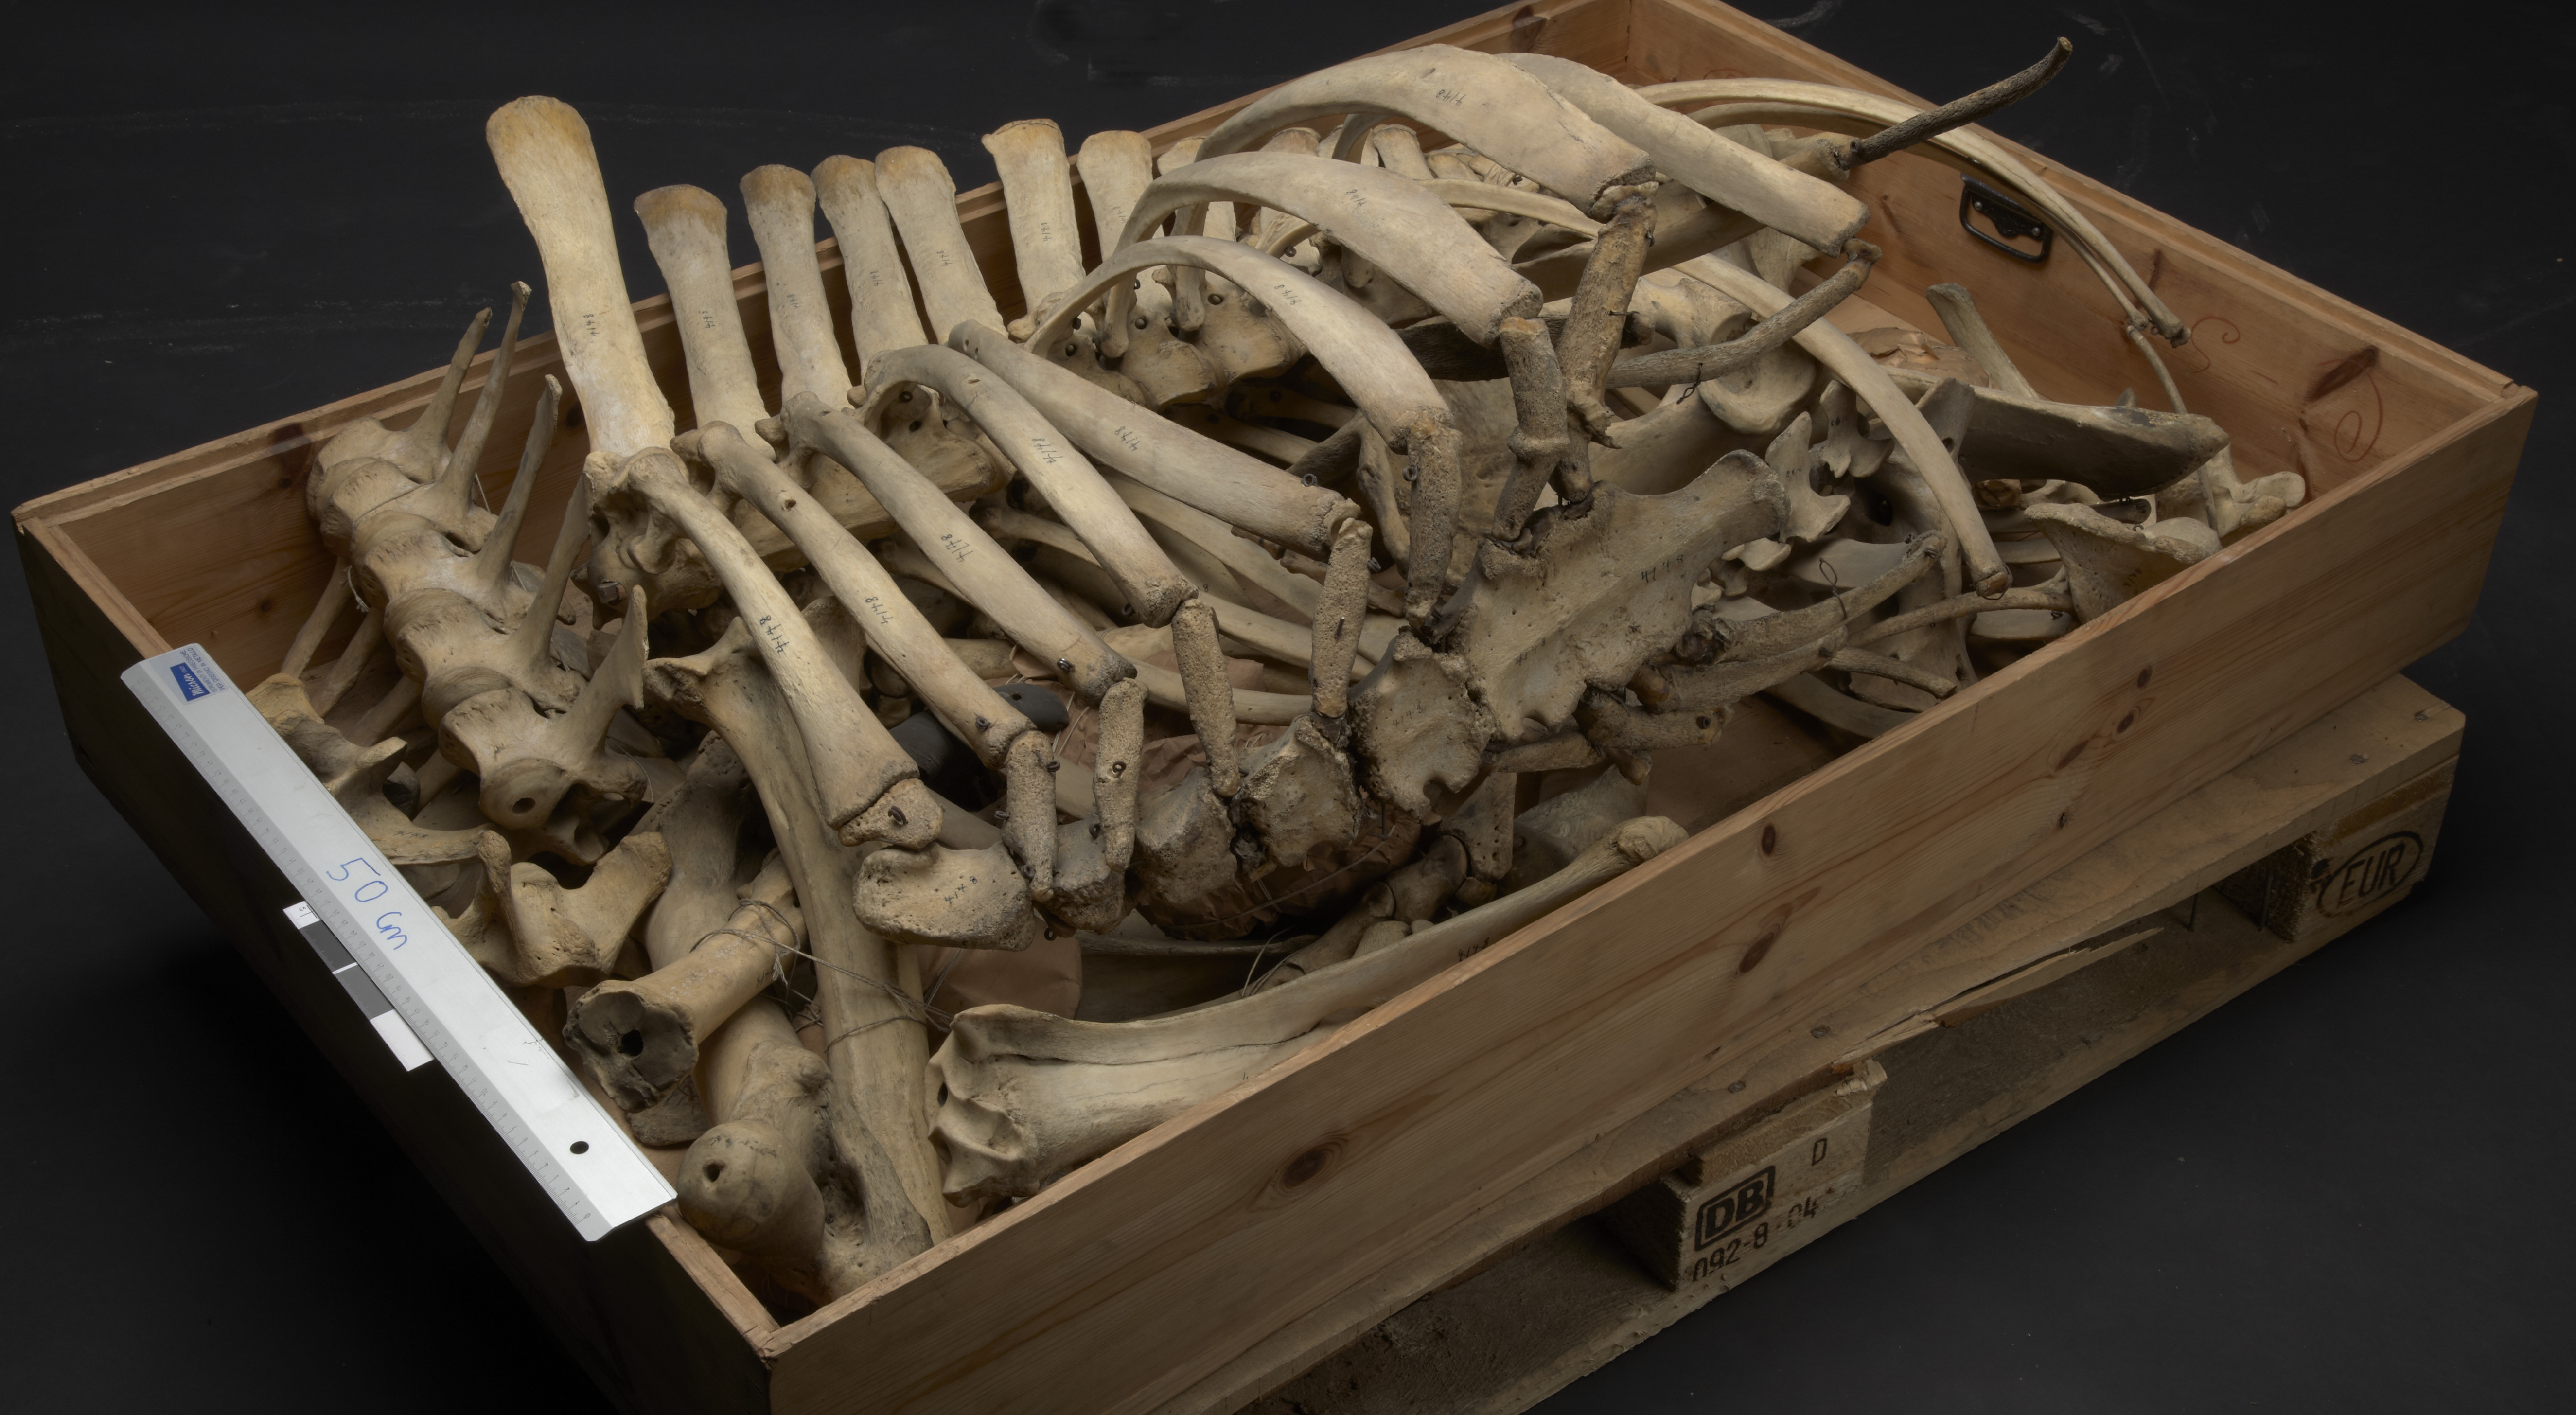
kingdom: Animalia
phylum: Chordata
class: Mammalia
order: Artiodactyla
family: Bovidae
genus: Bos
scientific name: Bos grunniens
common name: Yak
